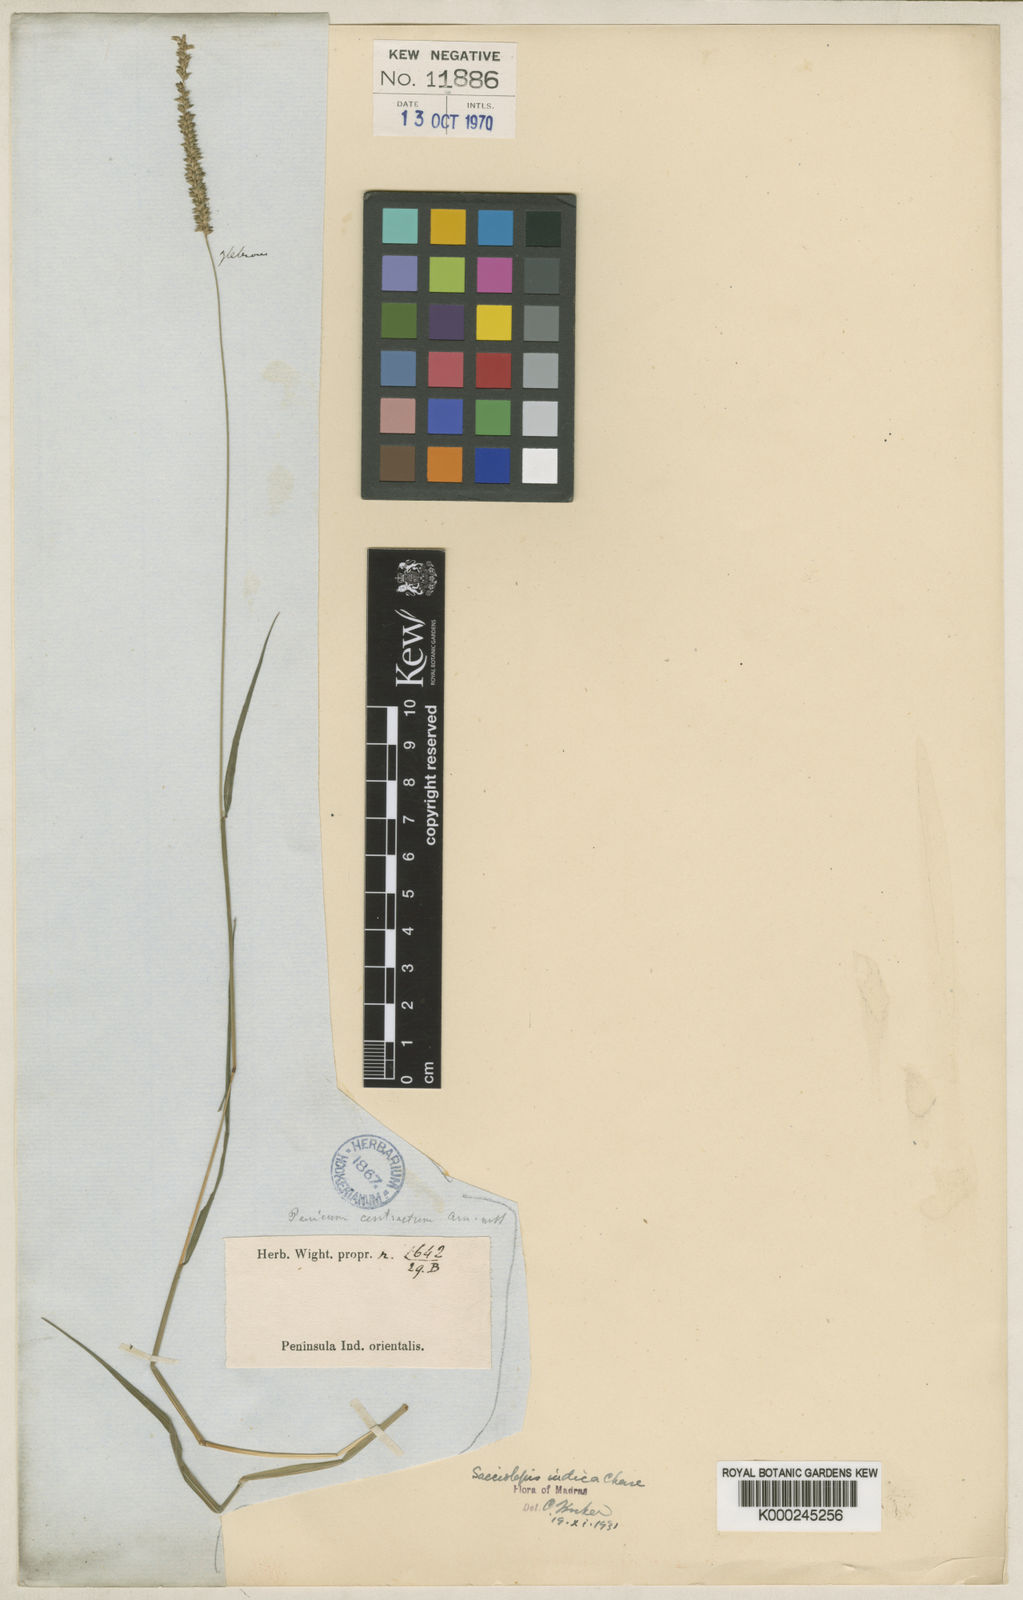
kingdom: Plantae
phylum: Tracheophyta
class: Liliopsida
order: Poales
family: Poaceae
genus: Sacciolepis
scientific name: Sacciolepis indica
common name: Glenwoodgrass
